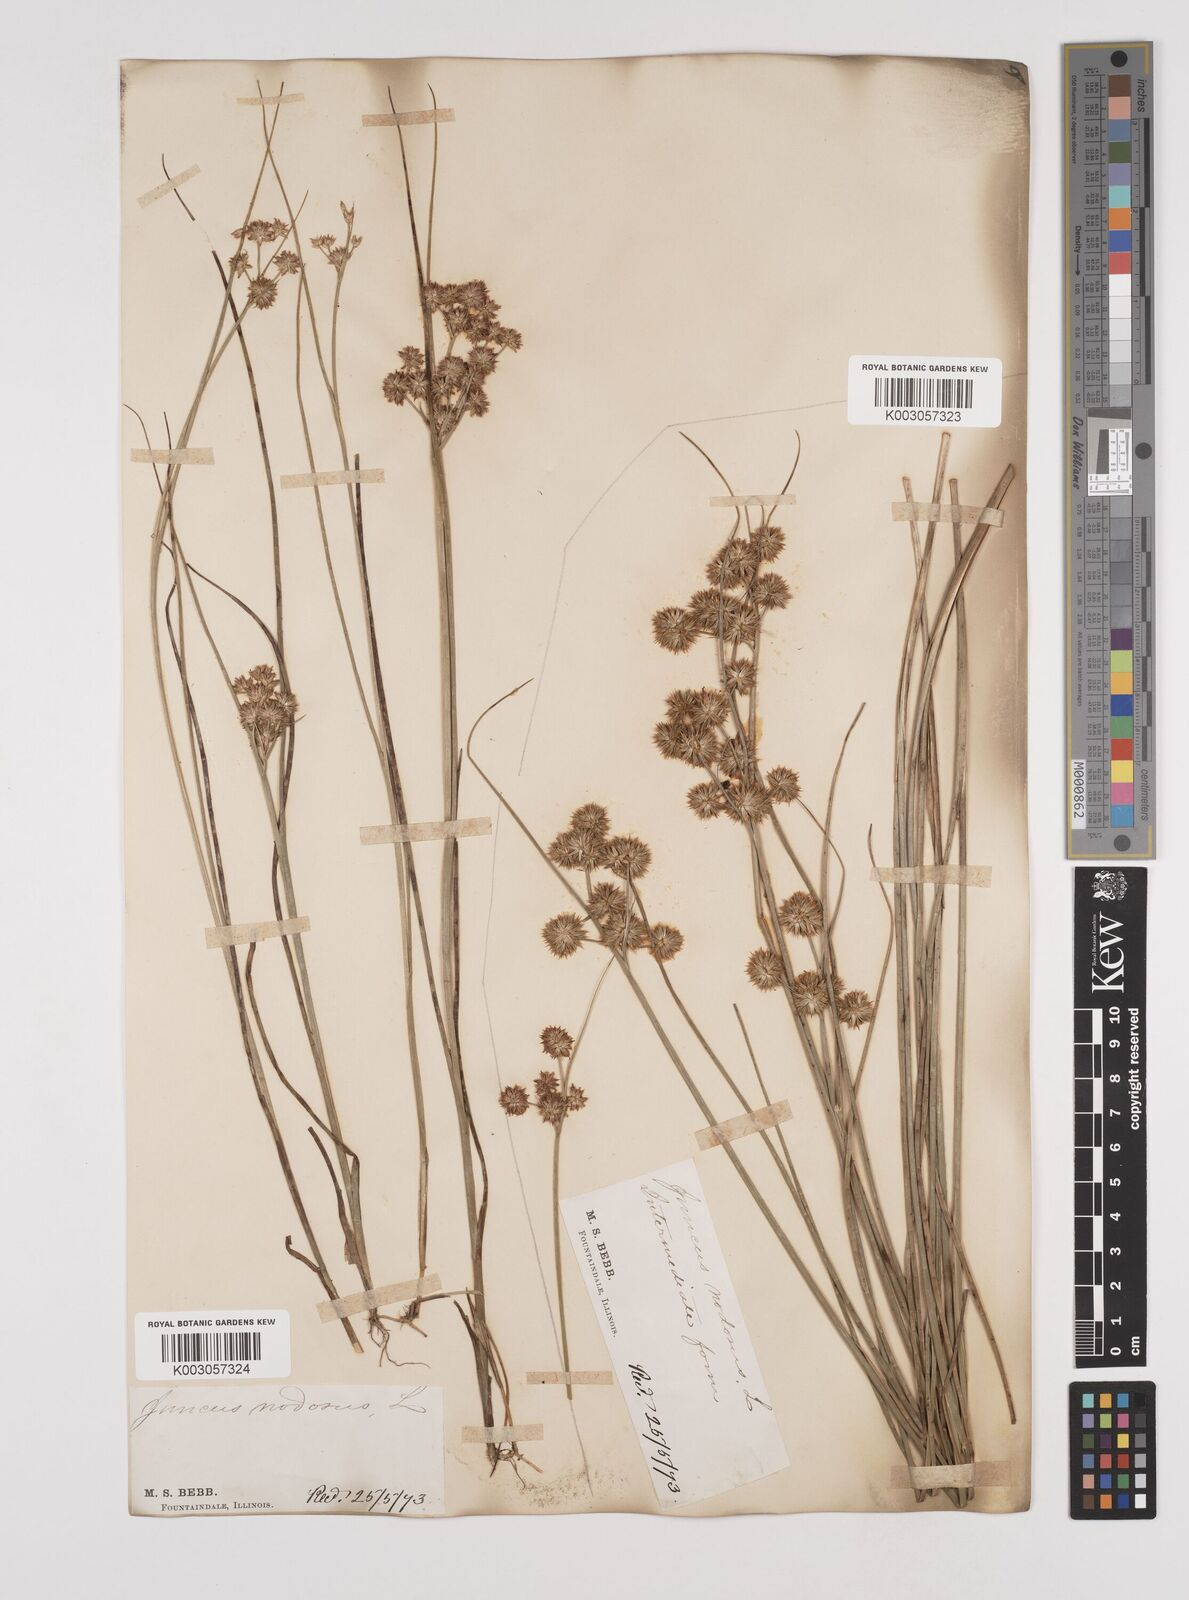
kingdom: Plantae
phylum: Tracheophyta
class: Liliopsida
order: Poales
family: Juncaceae
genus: Juncus
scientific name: Juncus nodosus
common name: Knotted rush
